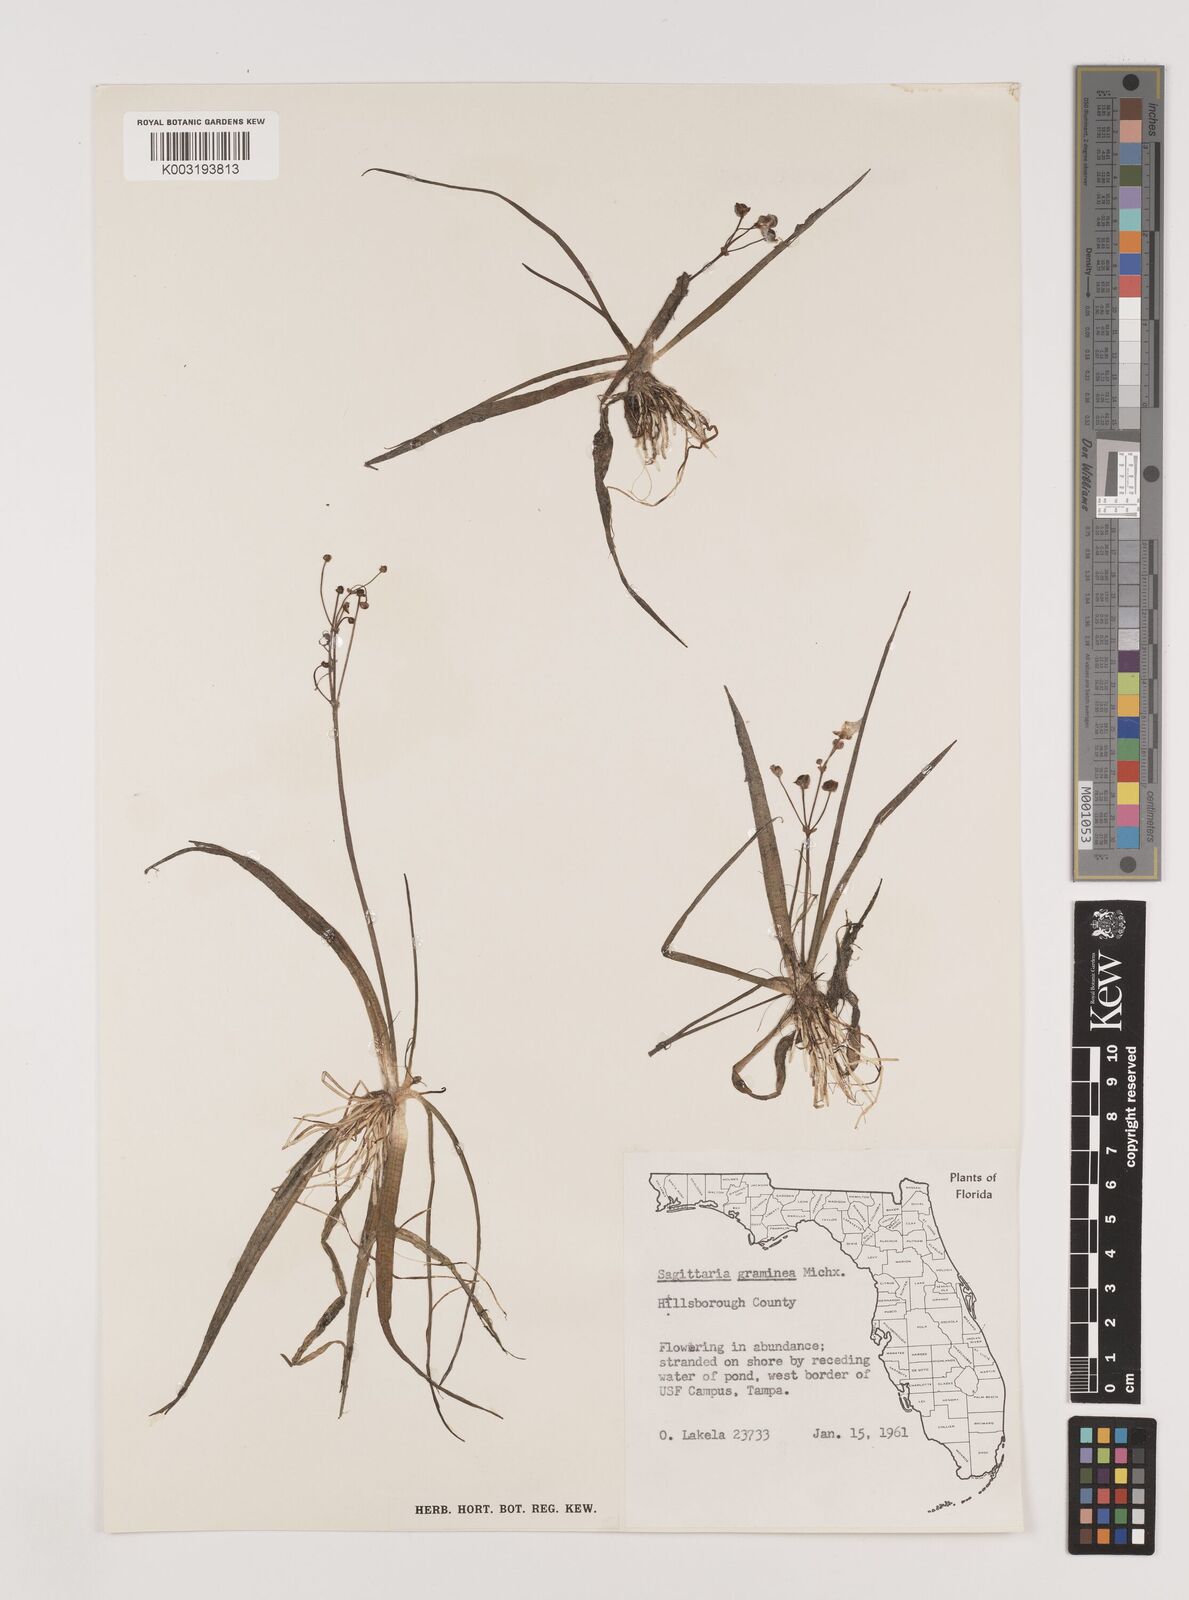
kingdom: Plantae
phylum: Tracheophyta
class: Liliopsida
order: Alismatales
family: Alismataceae
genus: Sagittaria
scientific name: Sagittaria graminea
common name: Grass-leaved arrowhead
